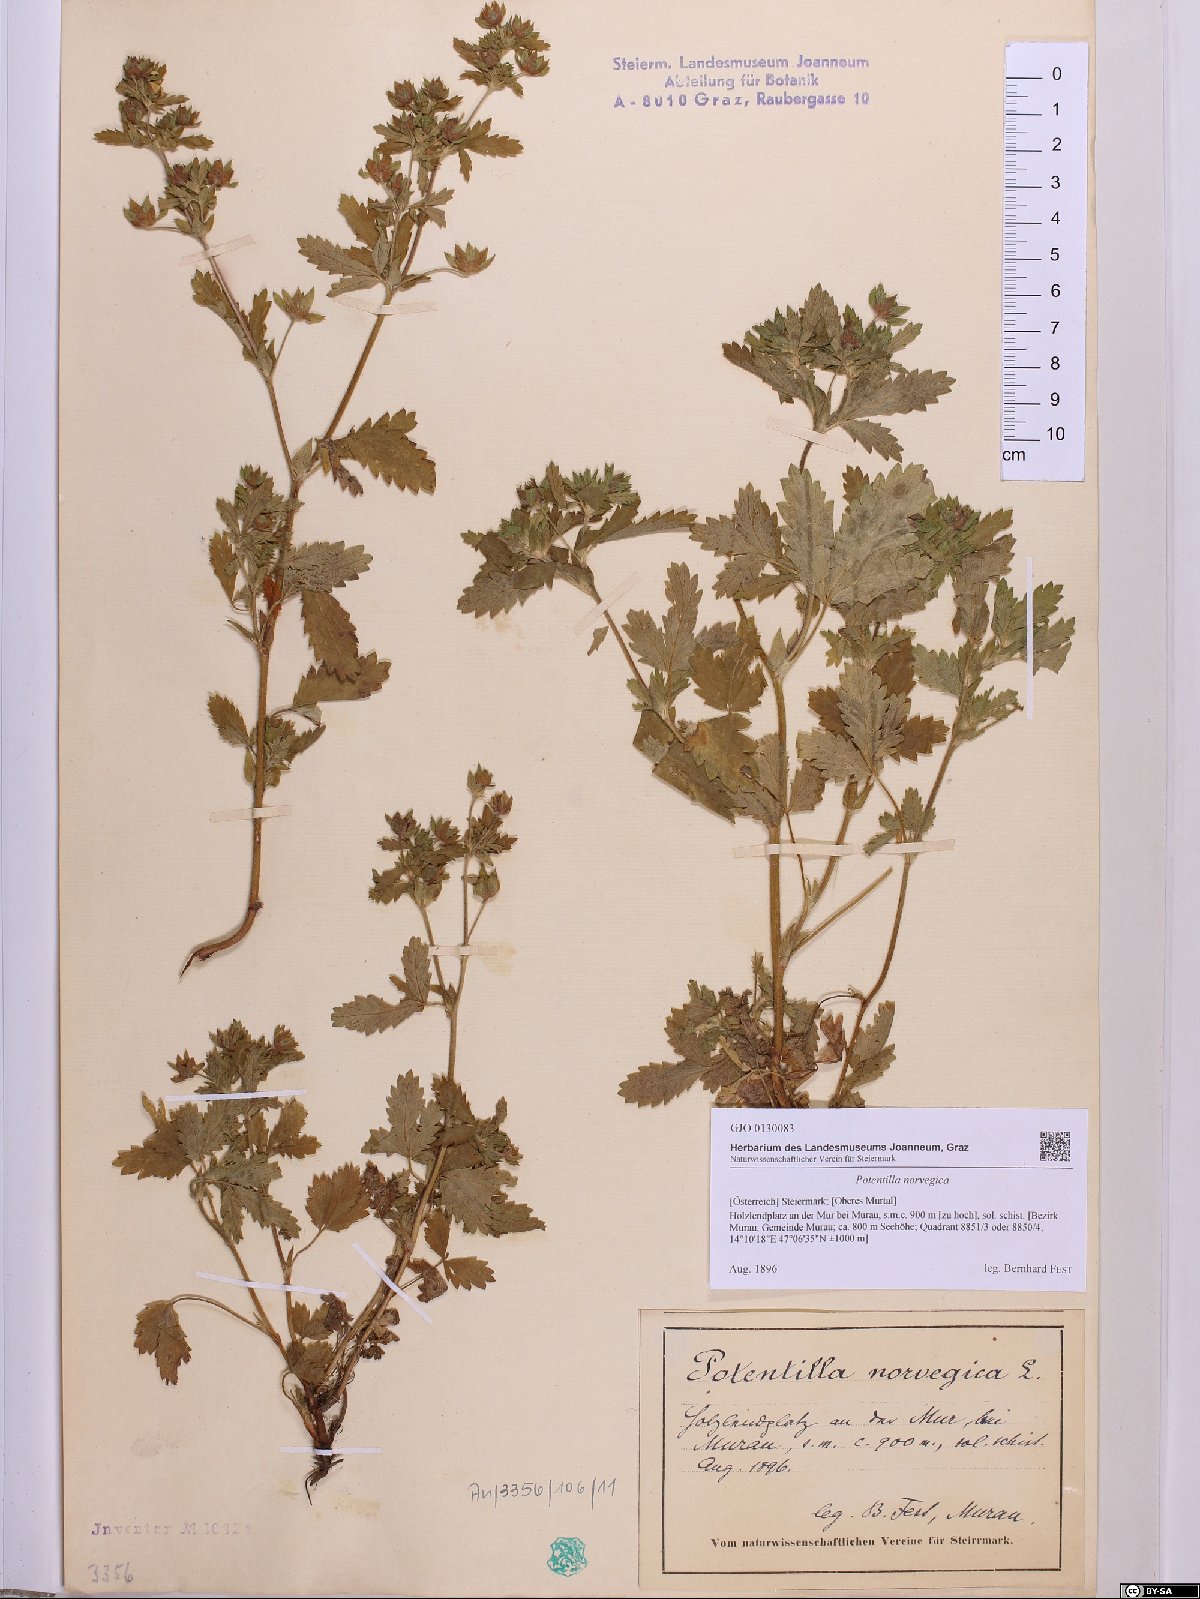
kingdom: Plantae
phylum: Tracheophyta
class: Magnoliopsida
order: Rosales
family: Rosaceae
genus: Potentilla
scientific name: Potentilla norvegica
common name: Ternate-leaved cinquefoil
